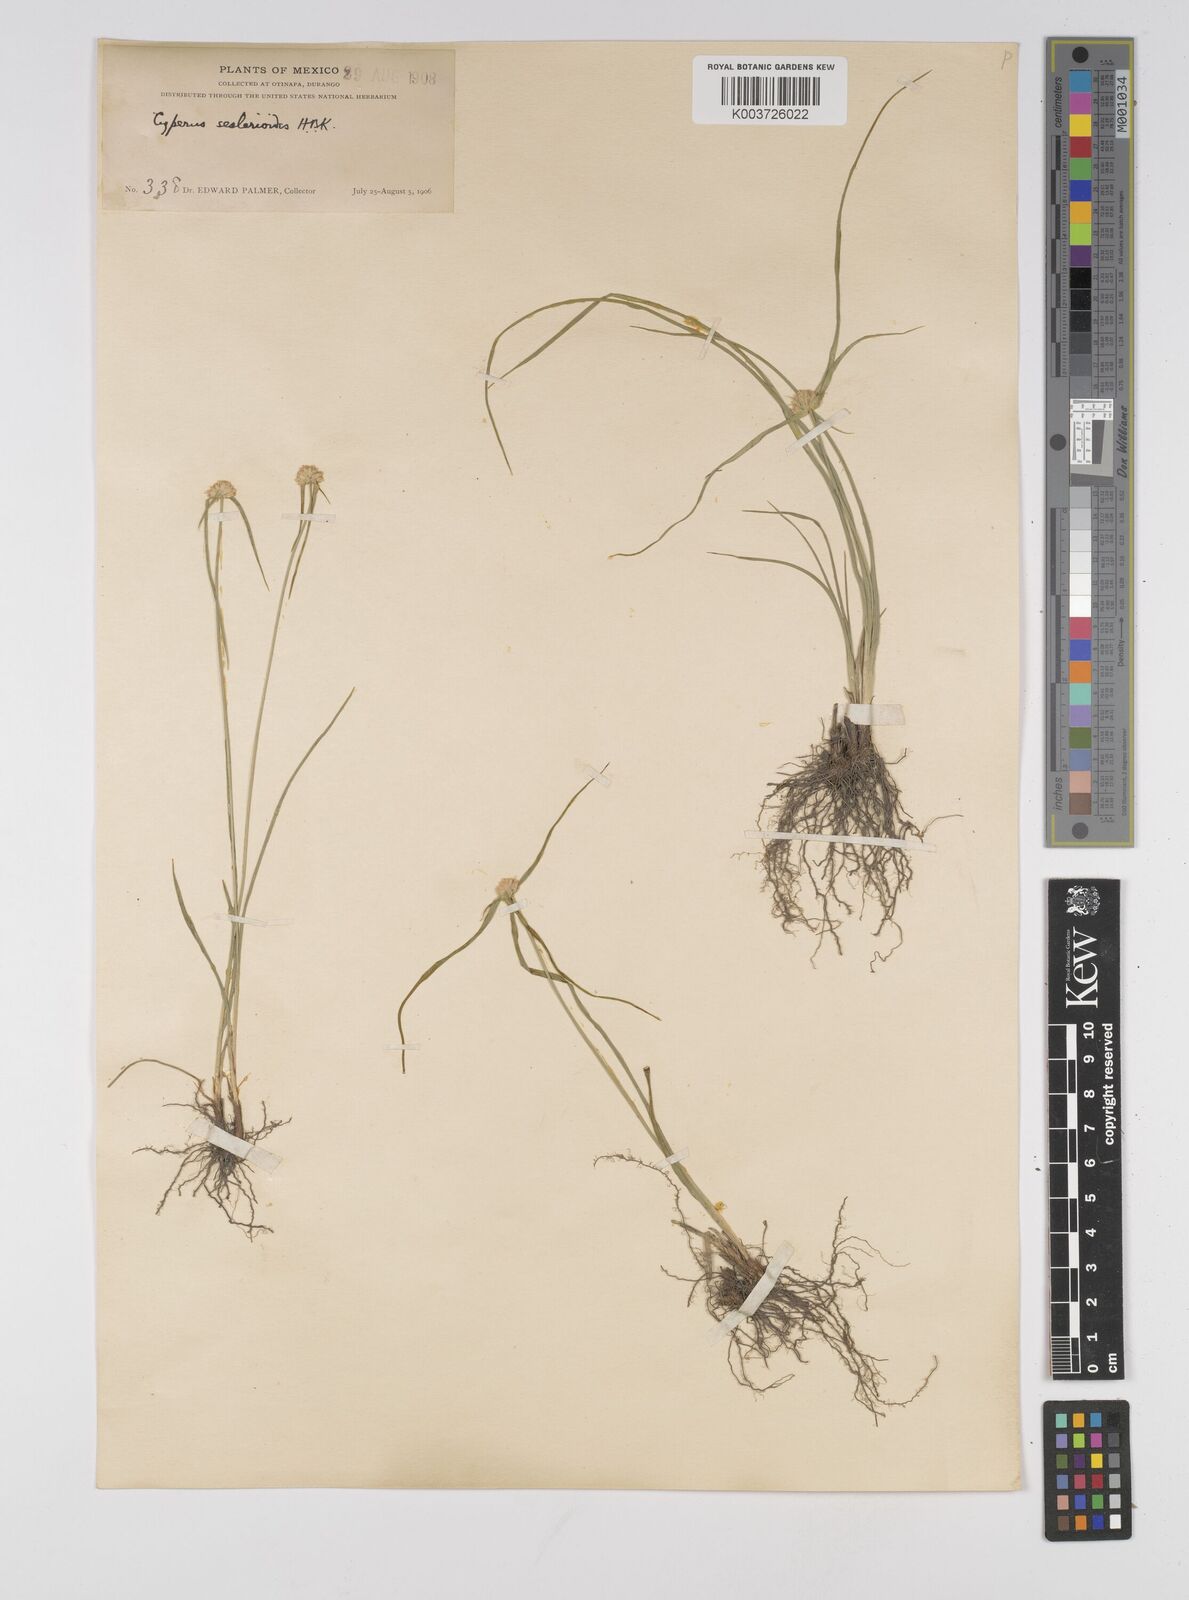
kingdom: Plantae
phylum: Tracheophyta
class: Liliopsida
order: Poales
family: Cyperaceae
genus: Cyperus
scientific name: Cyperus seslerioides
